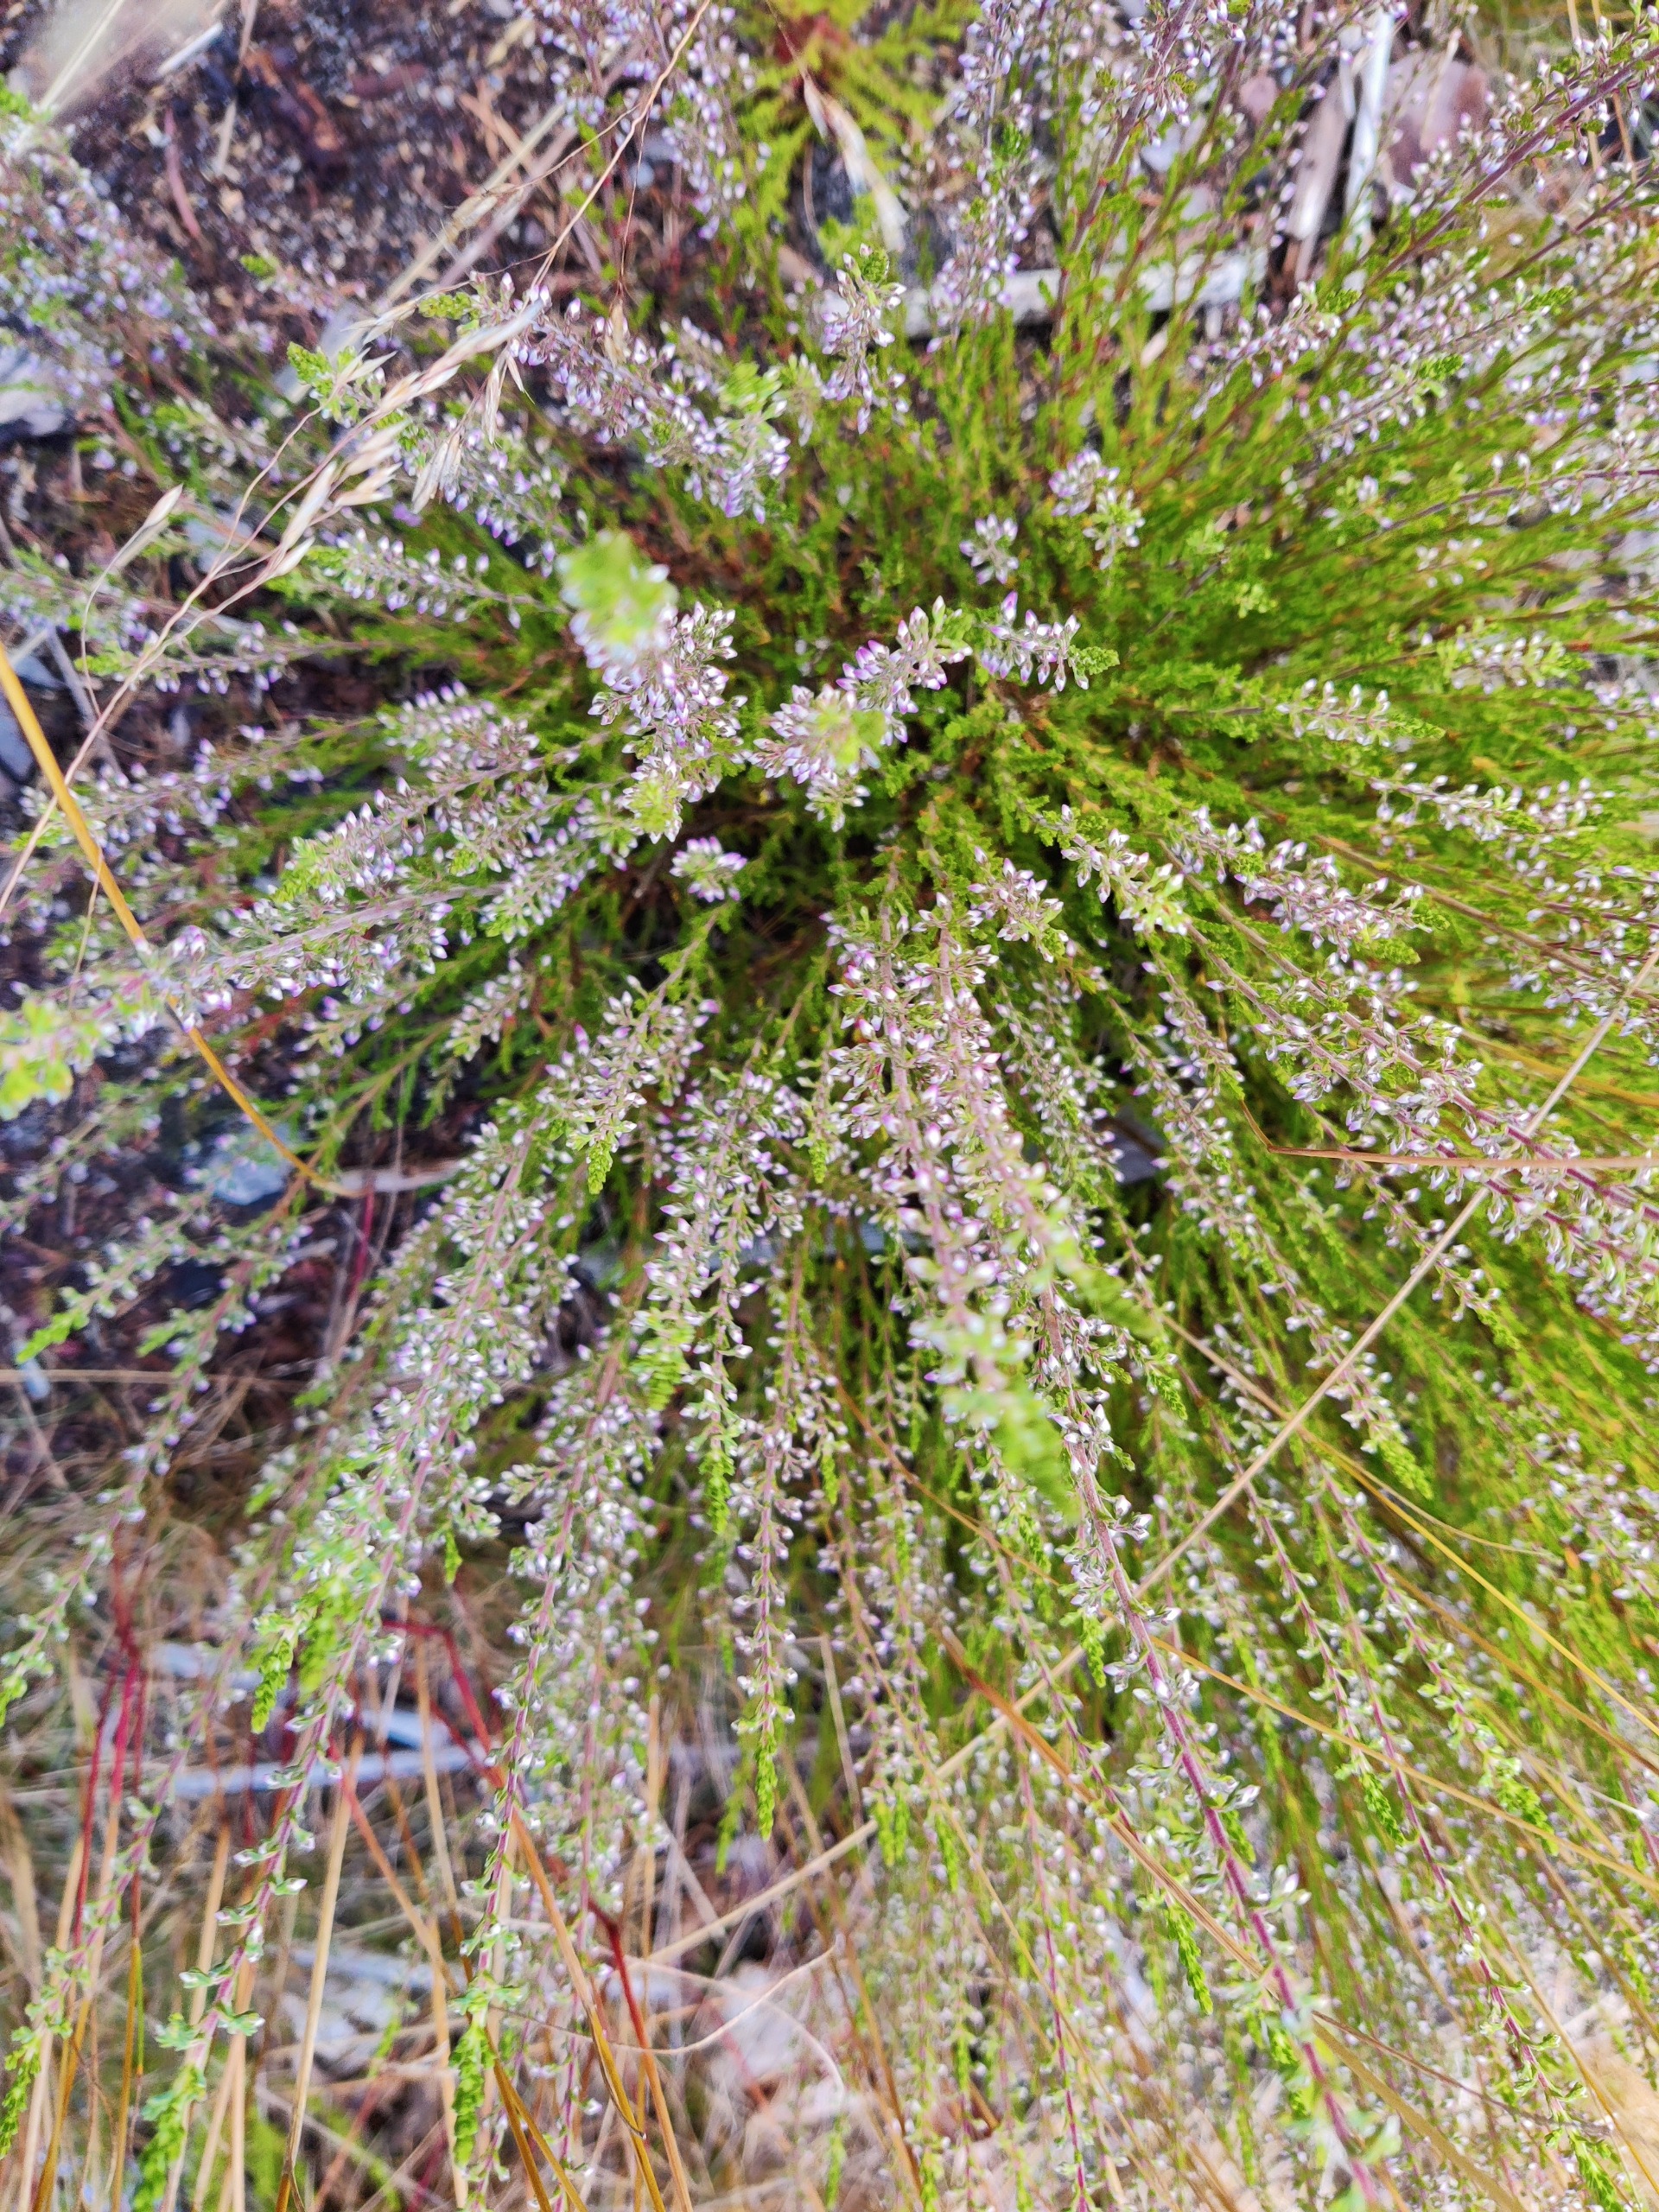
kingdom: Plantae
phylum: Tracheophyta
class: Magnoliopsida
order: Ericales
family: Ericaceae
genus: Calluna
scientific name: Calluna vulgaris
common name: Hedelyng
